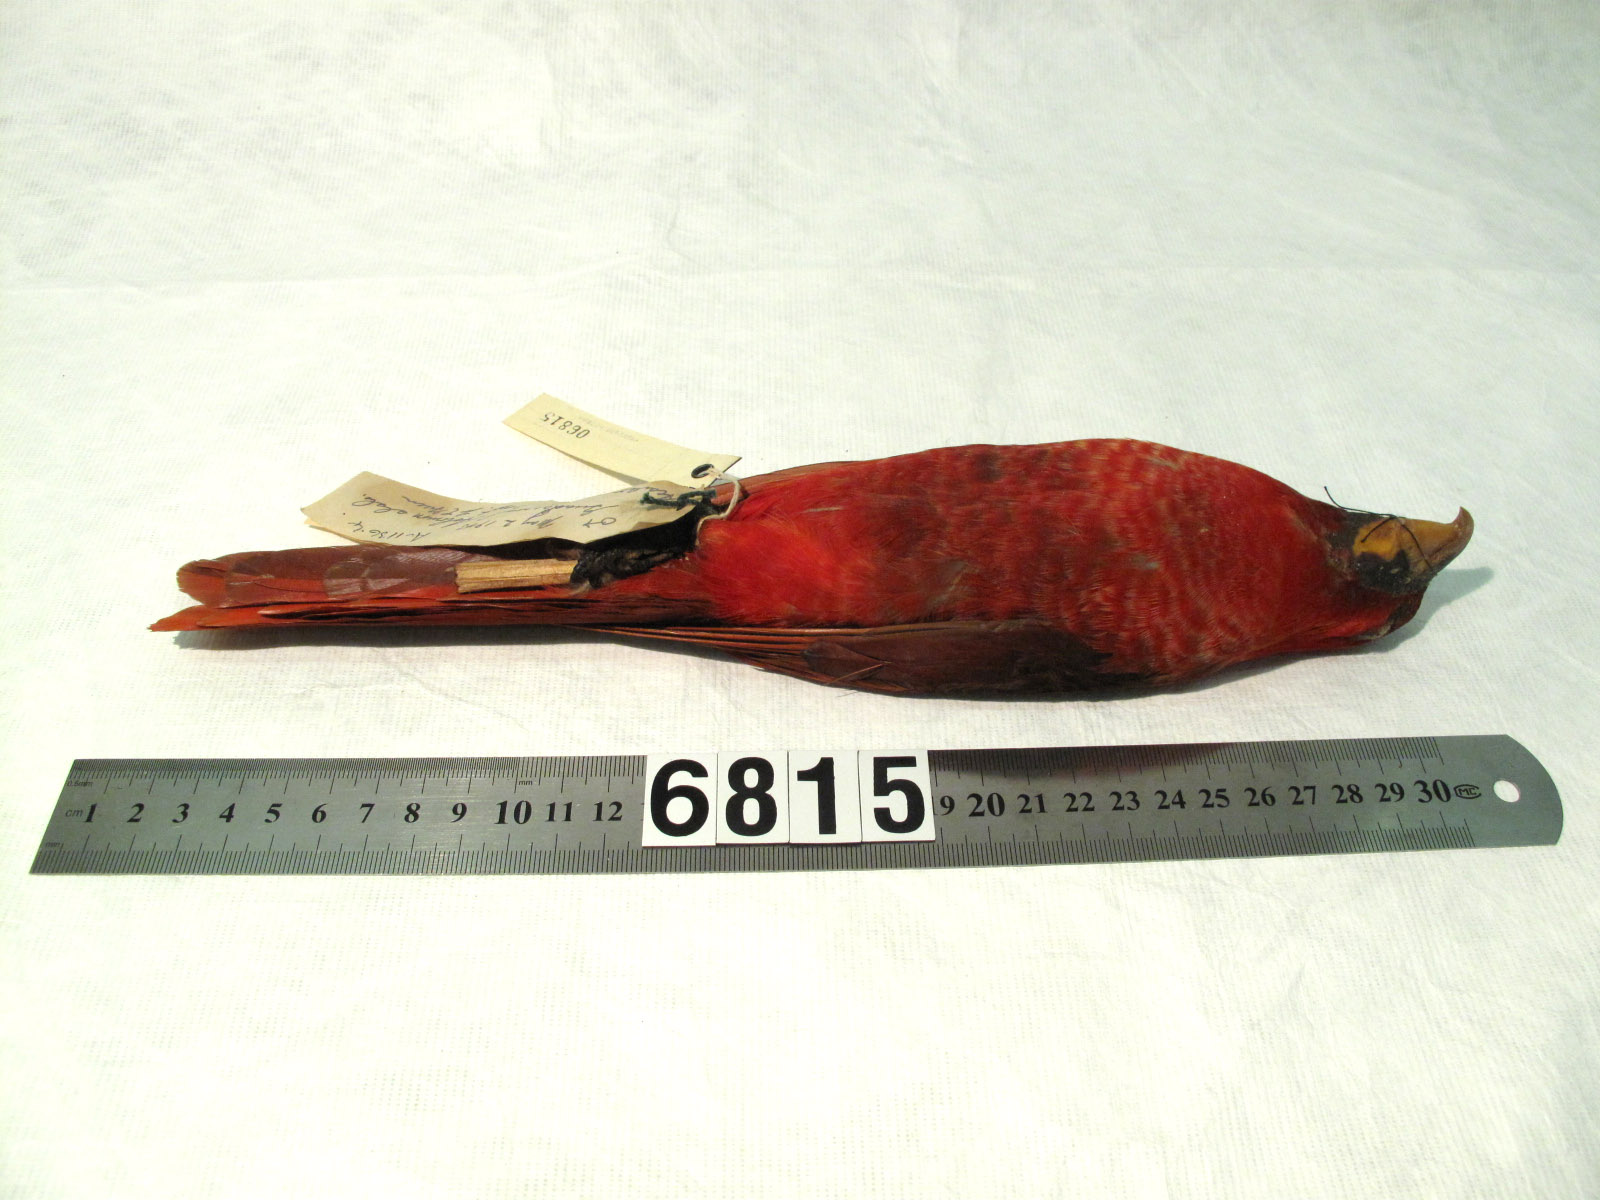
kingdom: Animalia
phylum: Chordata
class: Aves
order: Psittaciformes
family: Psittacidae
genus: Chalcopsitta
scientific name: Chalcopsitta cardinalis
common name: Cardinal lory
